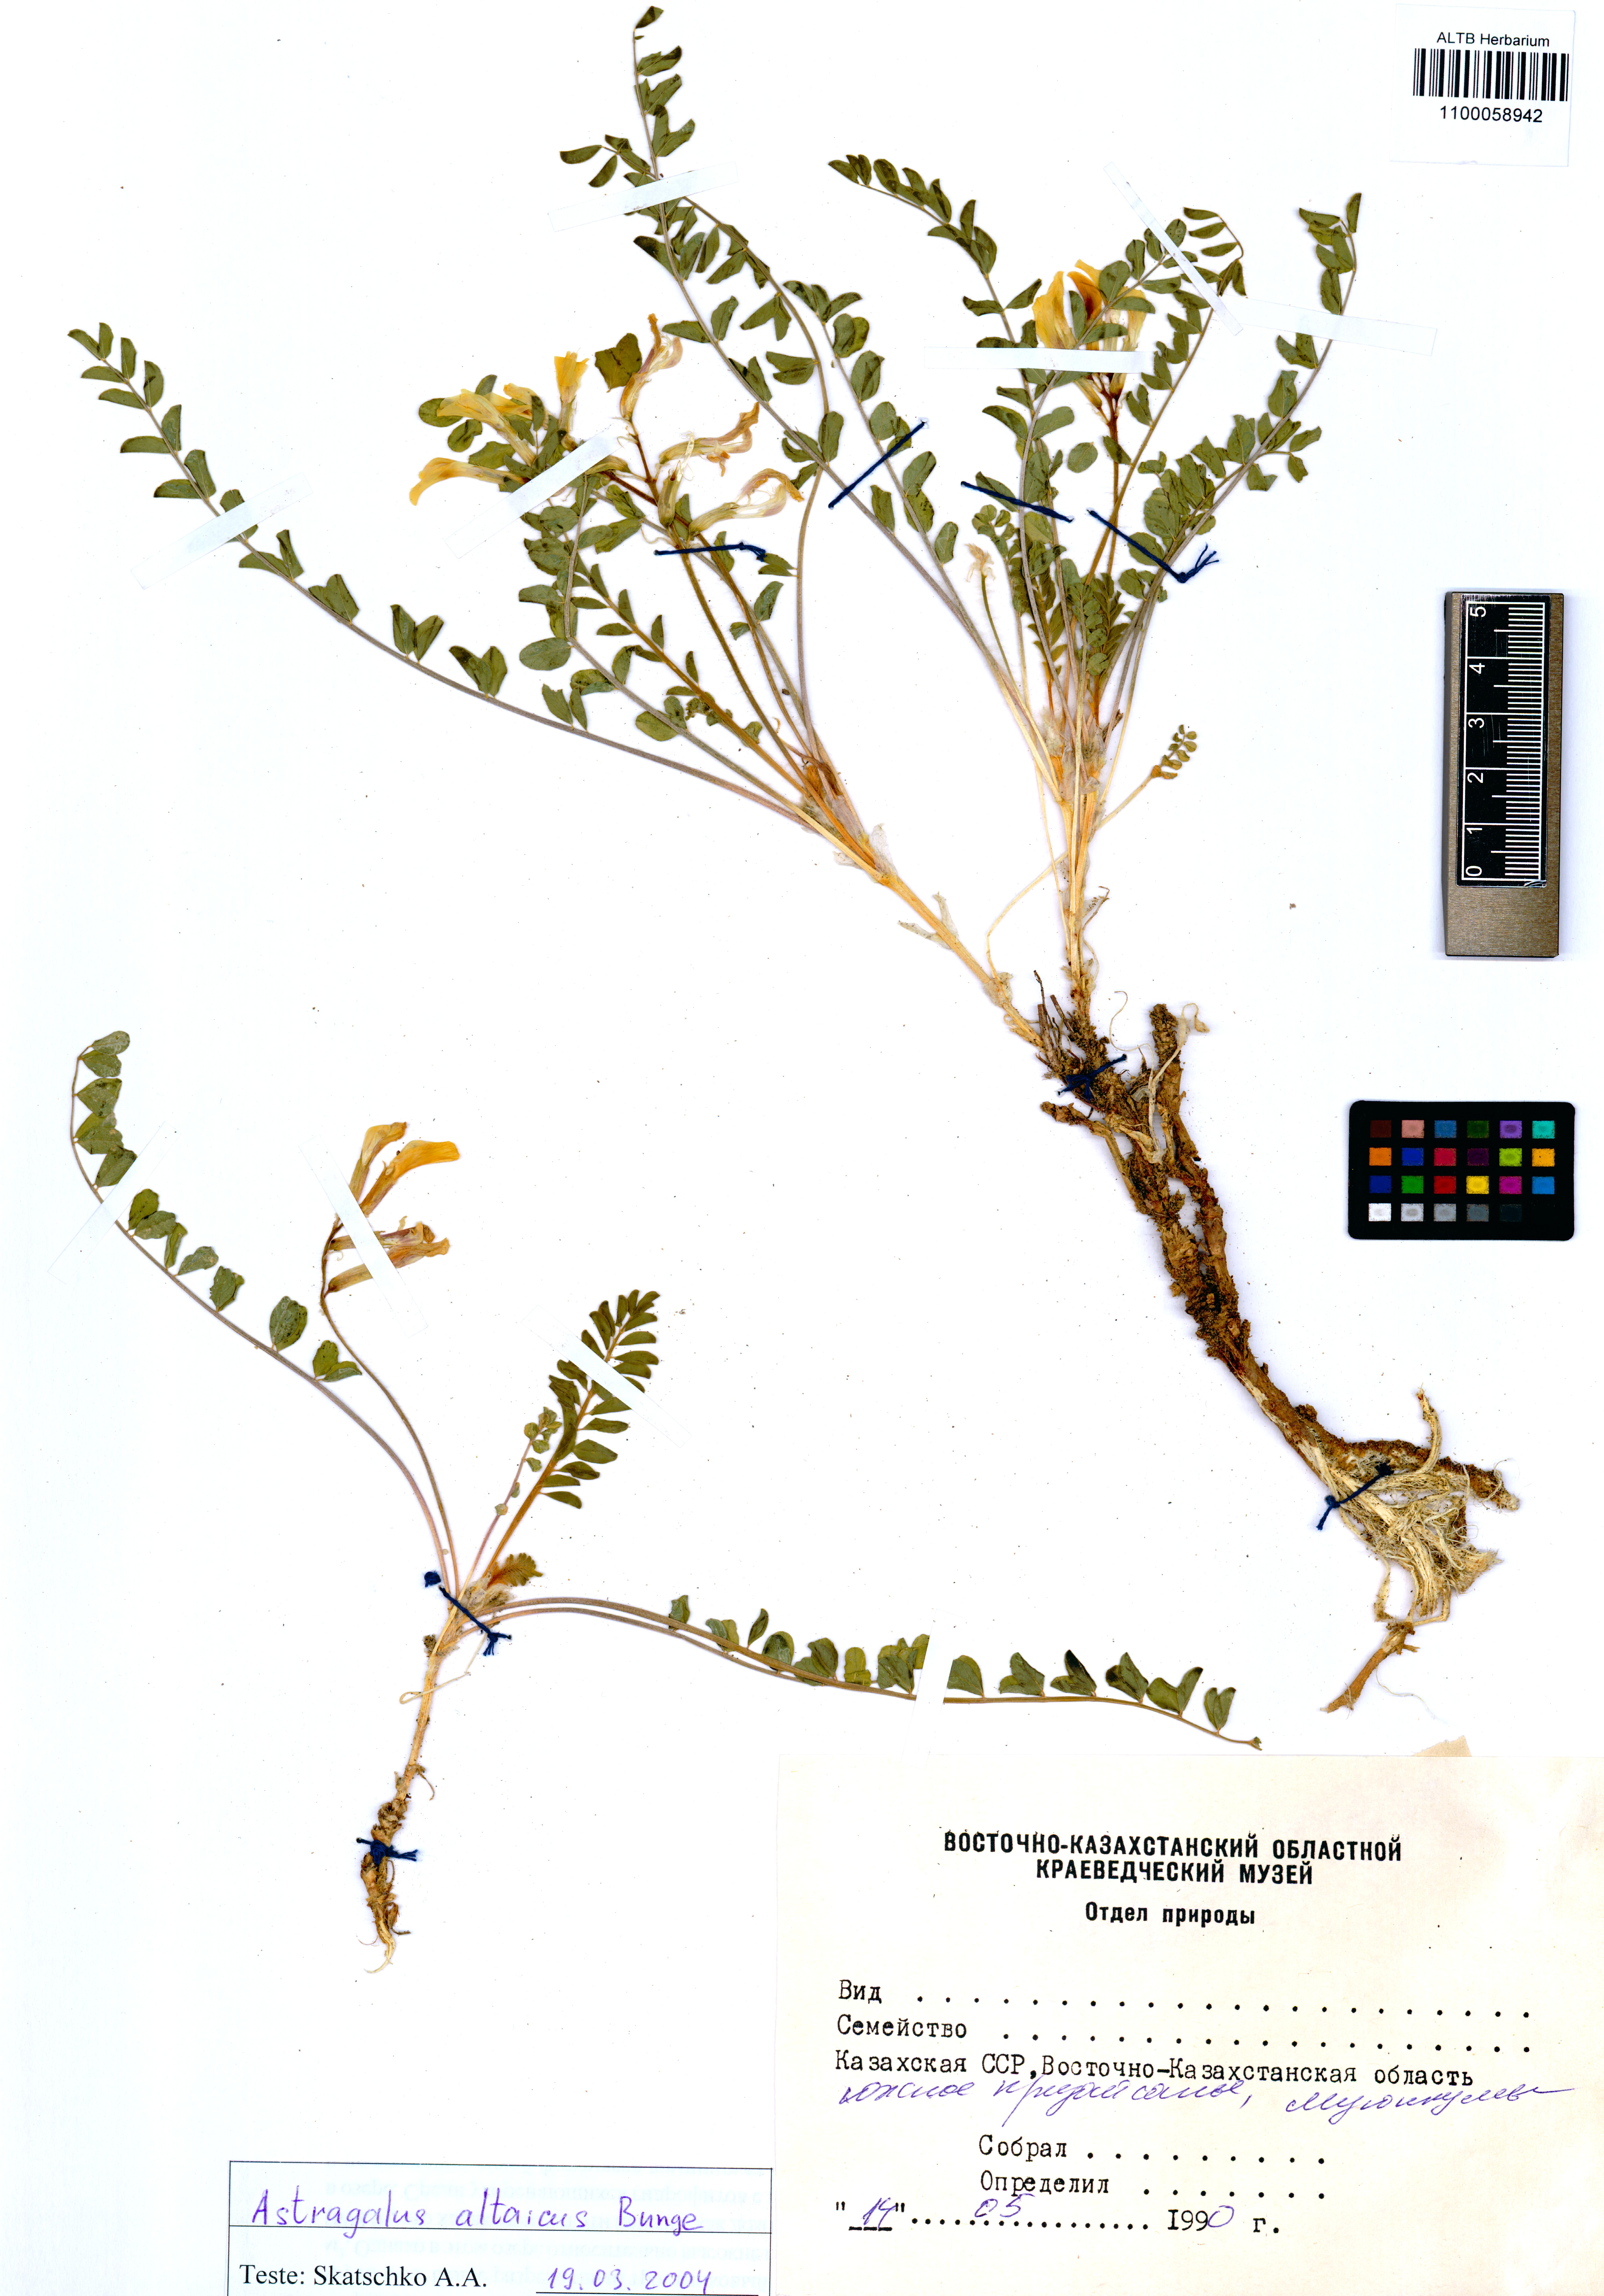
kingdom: Plantae
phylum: Tracheophyta
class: Magnoliopsida
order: Fabales
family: Fabaceae
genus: Astragalus
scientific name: Astragalus altaicola
